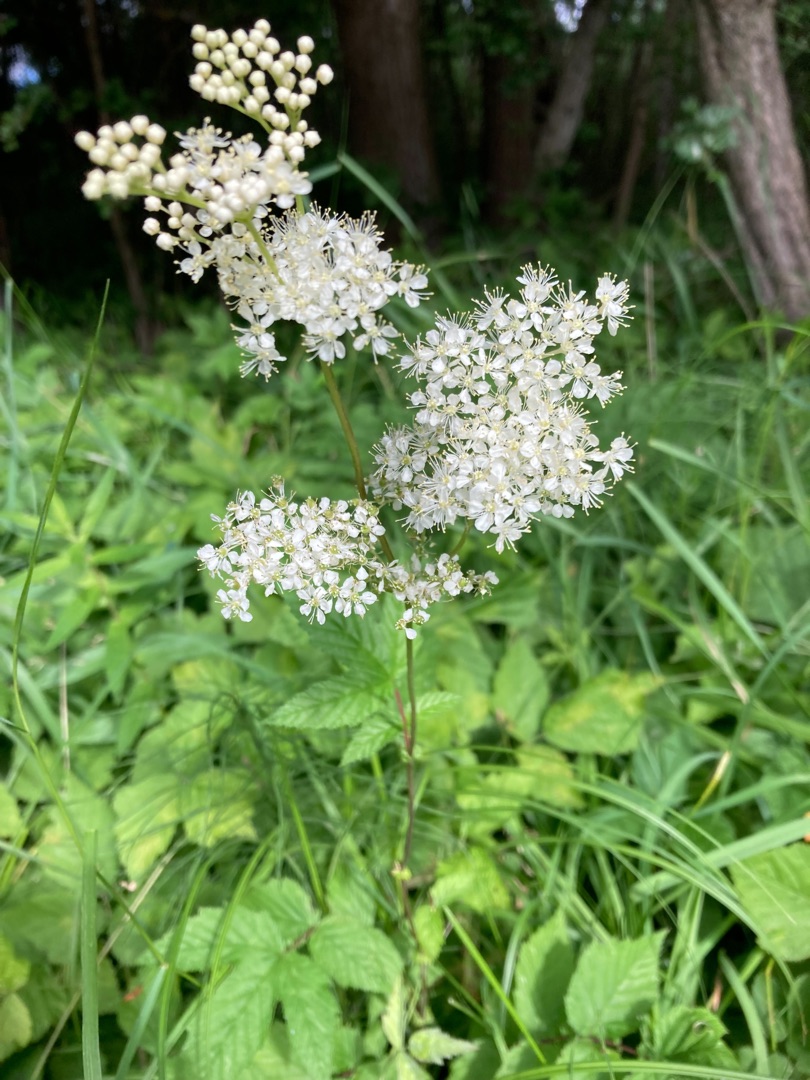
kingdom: Plantae
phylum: Tracheophyta
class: Magnoliopsida
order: Rosales
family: Rosaceae
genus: Filipendula
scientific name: Filipendula ulmaria
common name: Almindelig mjødurt
